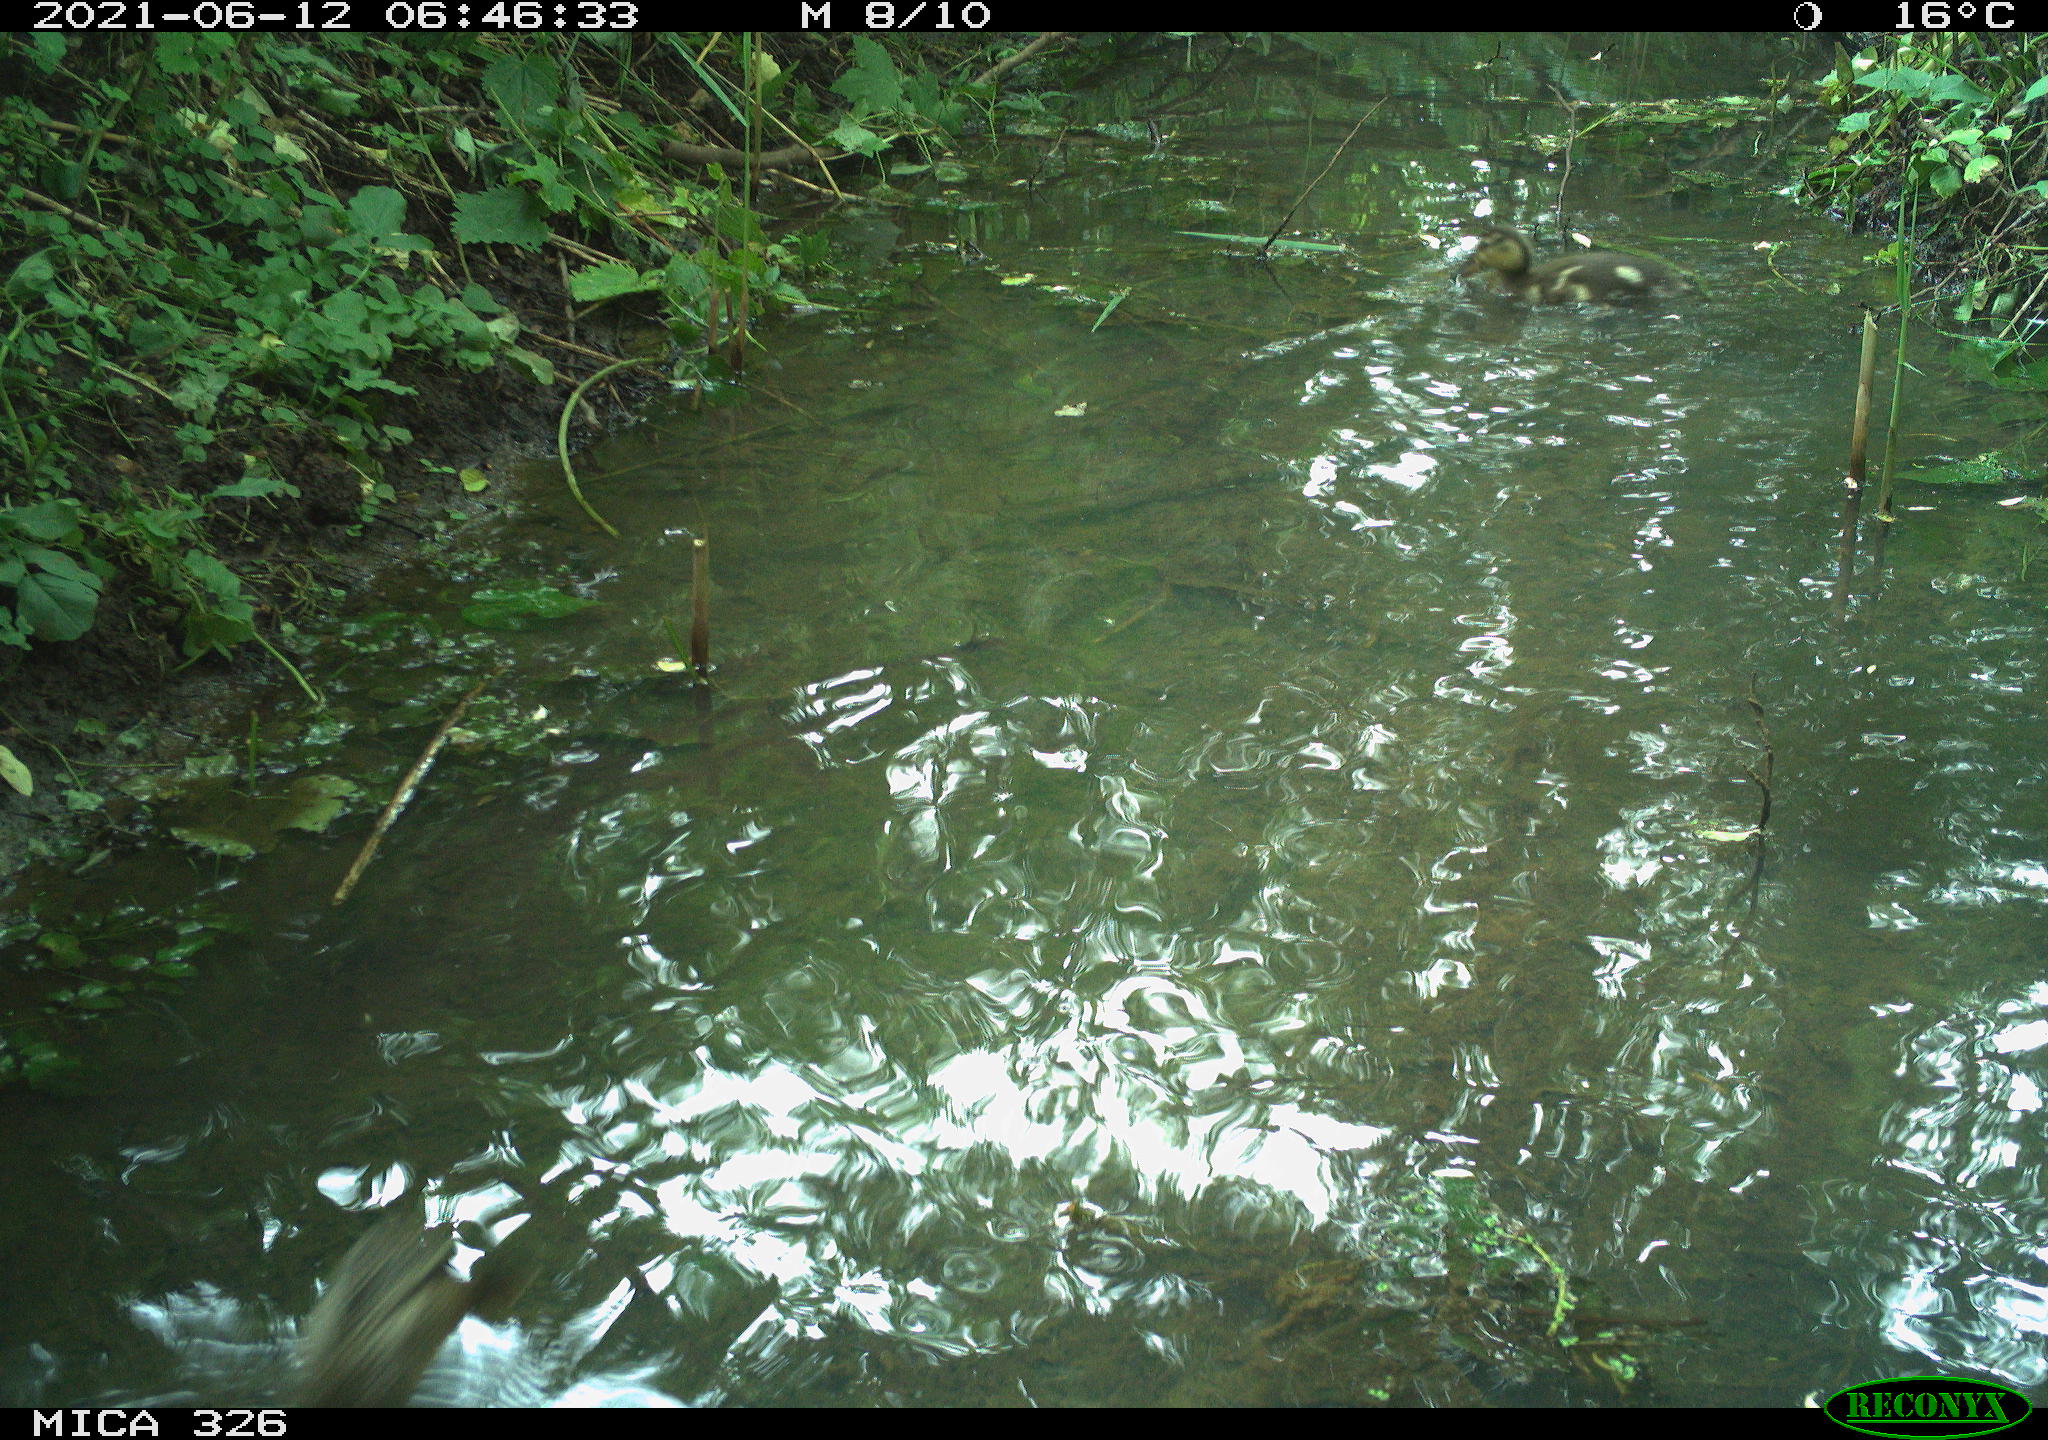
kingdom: Animalia
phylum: Chordata
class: Aves
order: Anseriformes
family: Anatidae
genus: Anas
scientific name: Anas platyrhynchos
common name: Mallard
